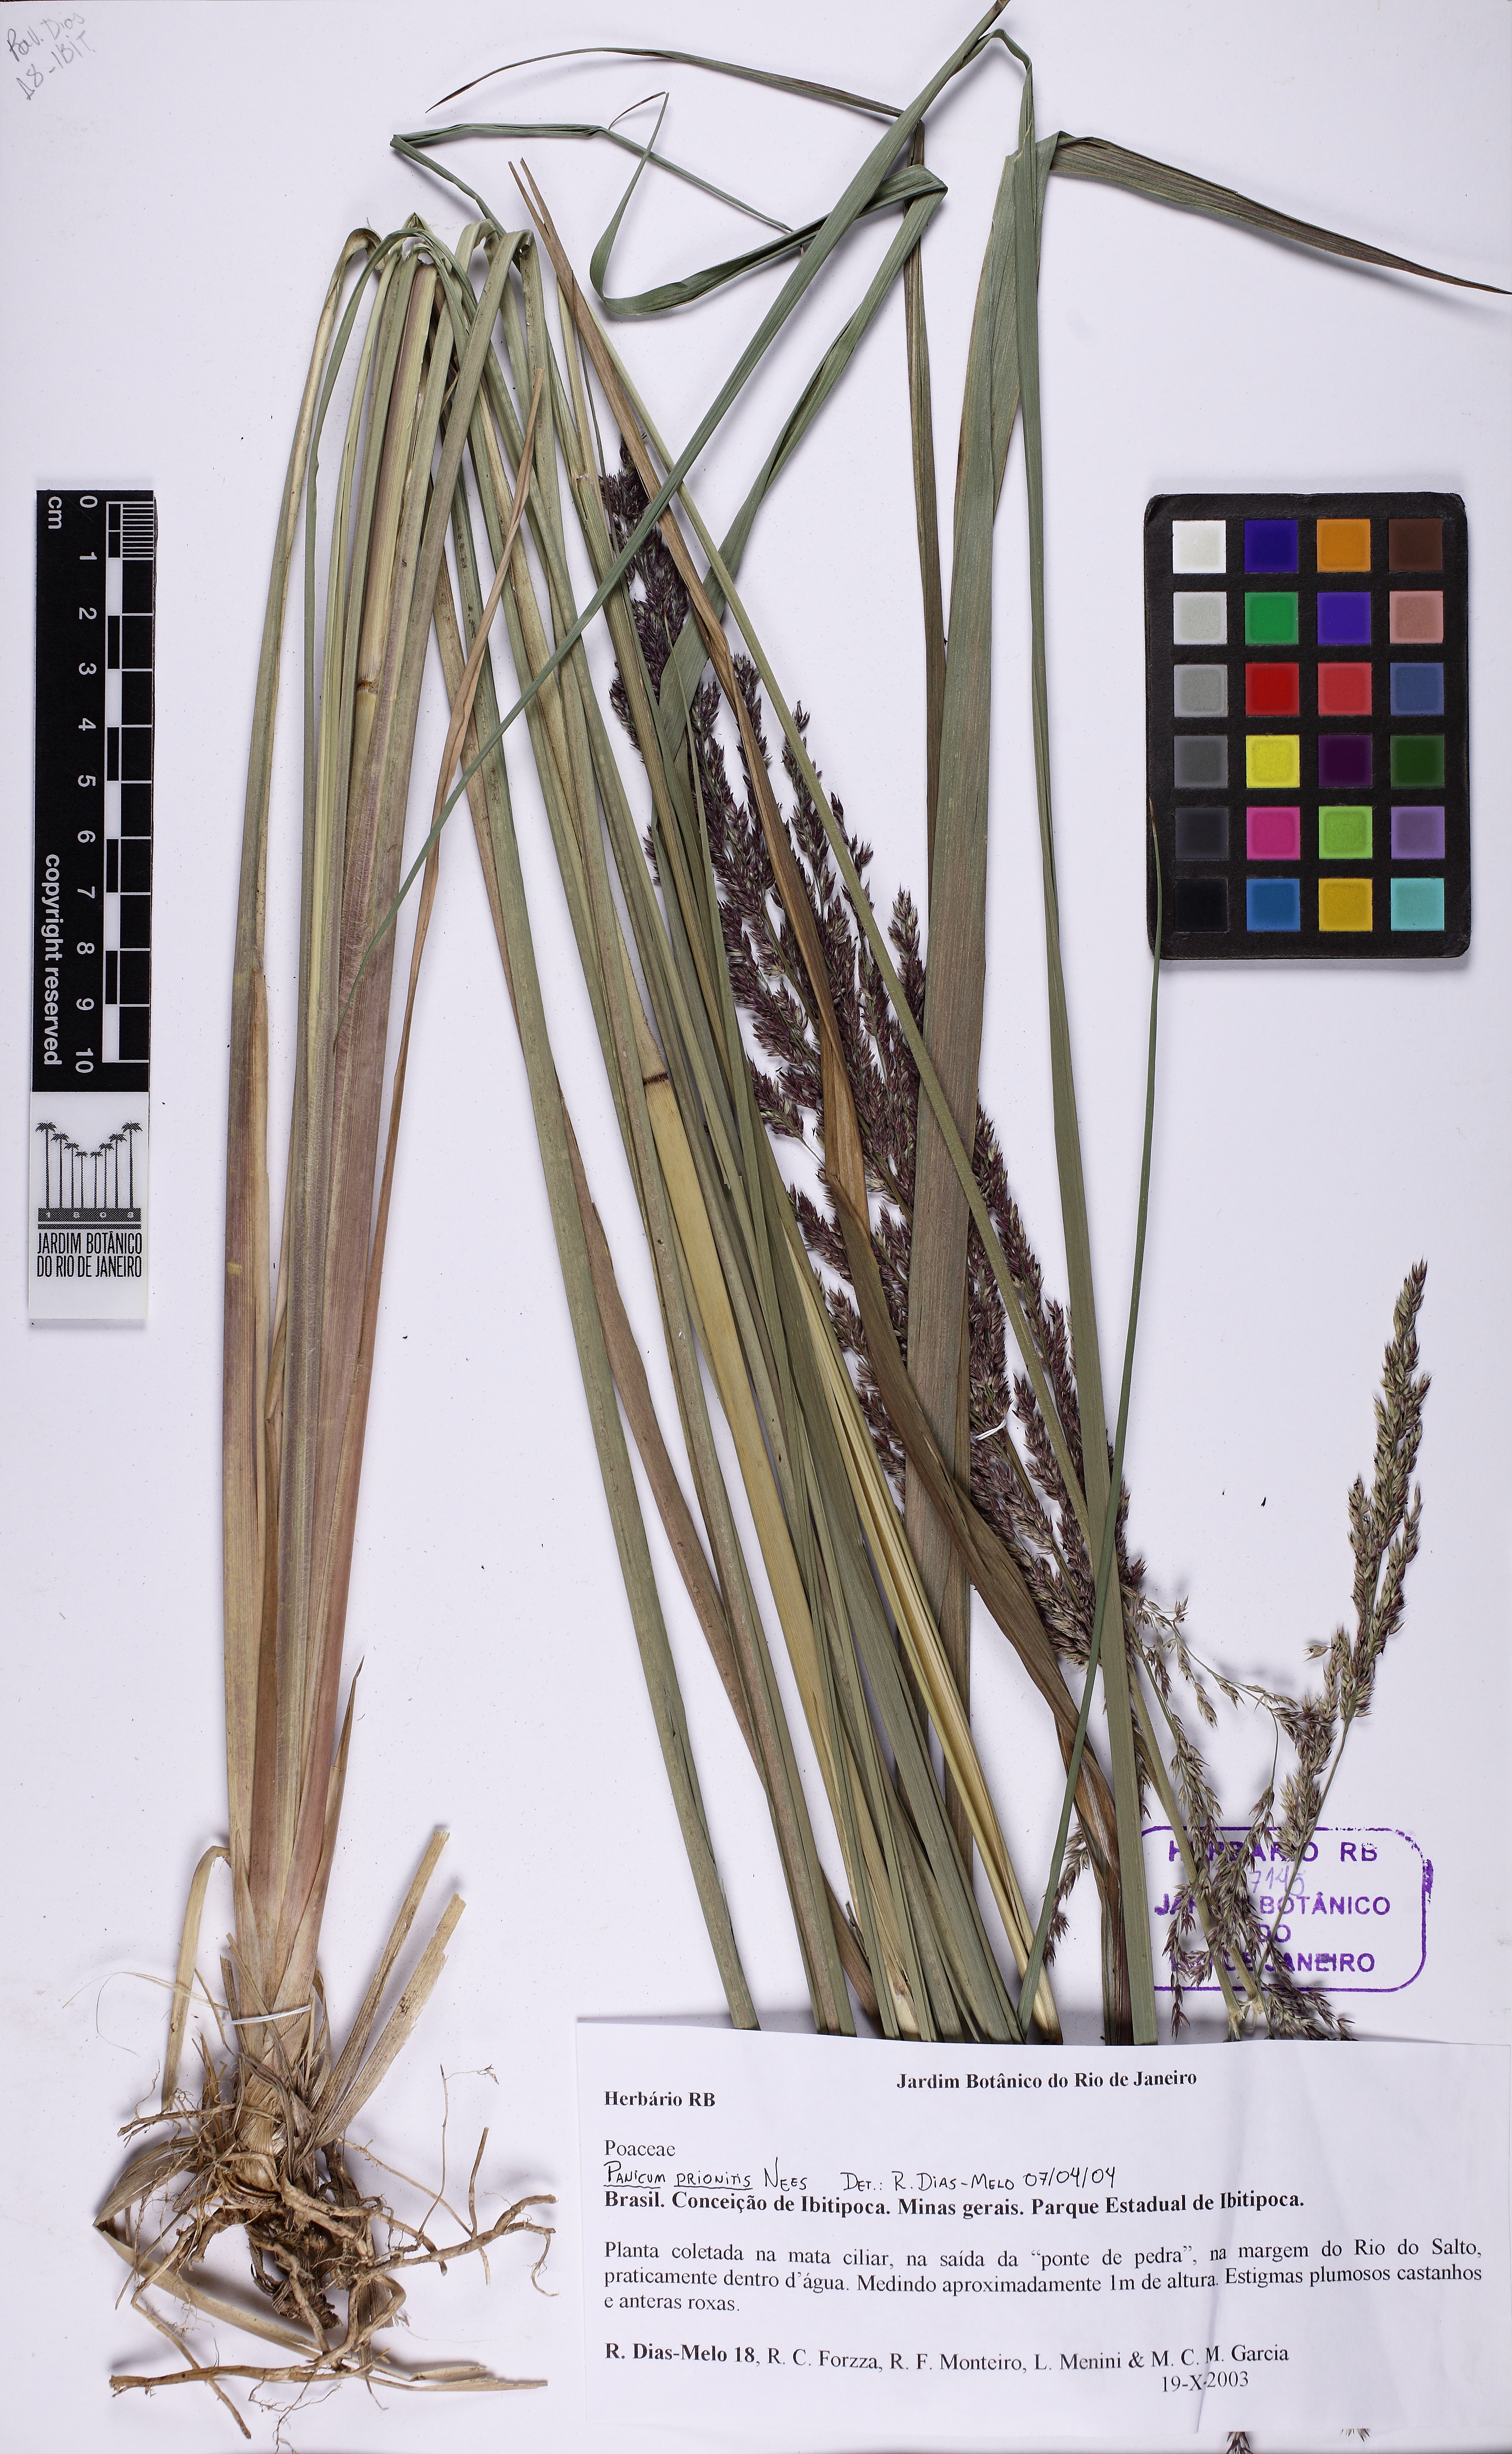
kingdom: Plantae
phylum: Tracheophyta
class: Liliopsida
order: Poales
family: Poaceae
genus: Streptostachys
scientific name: Streptostachys asperifolia
